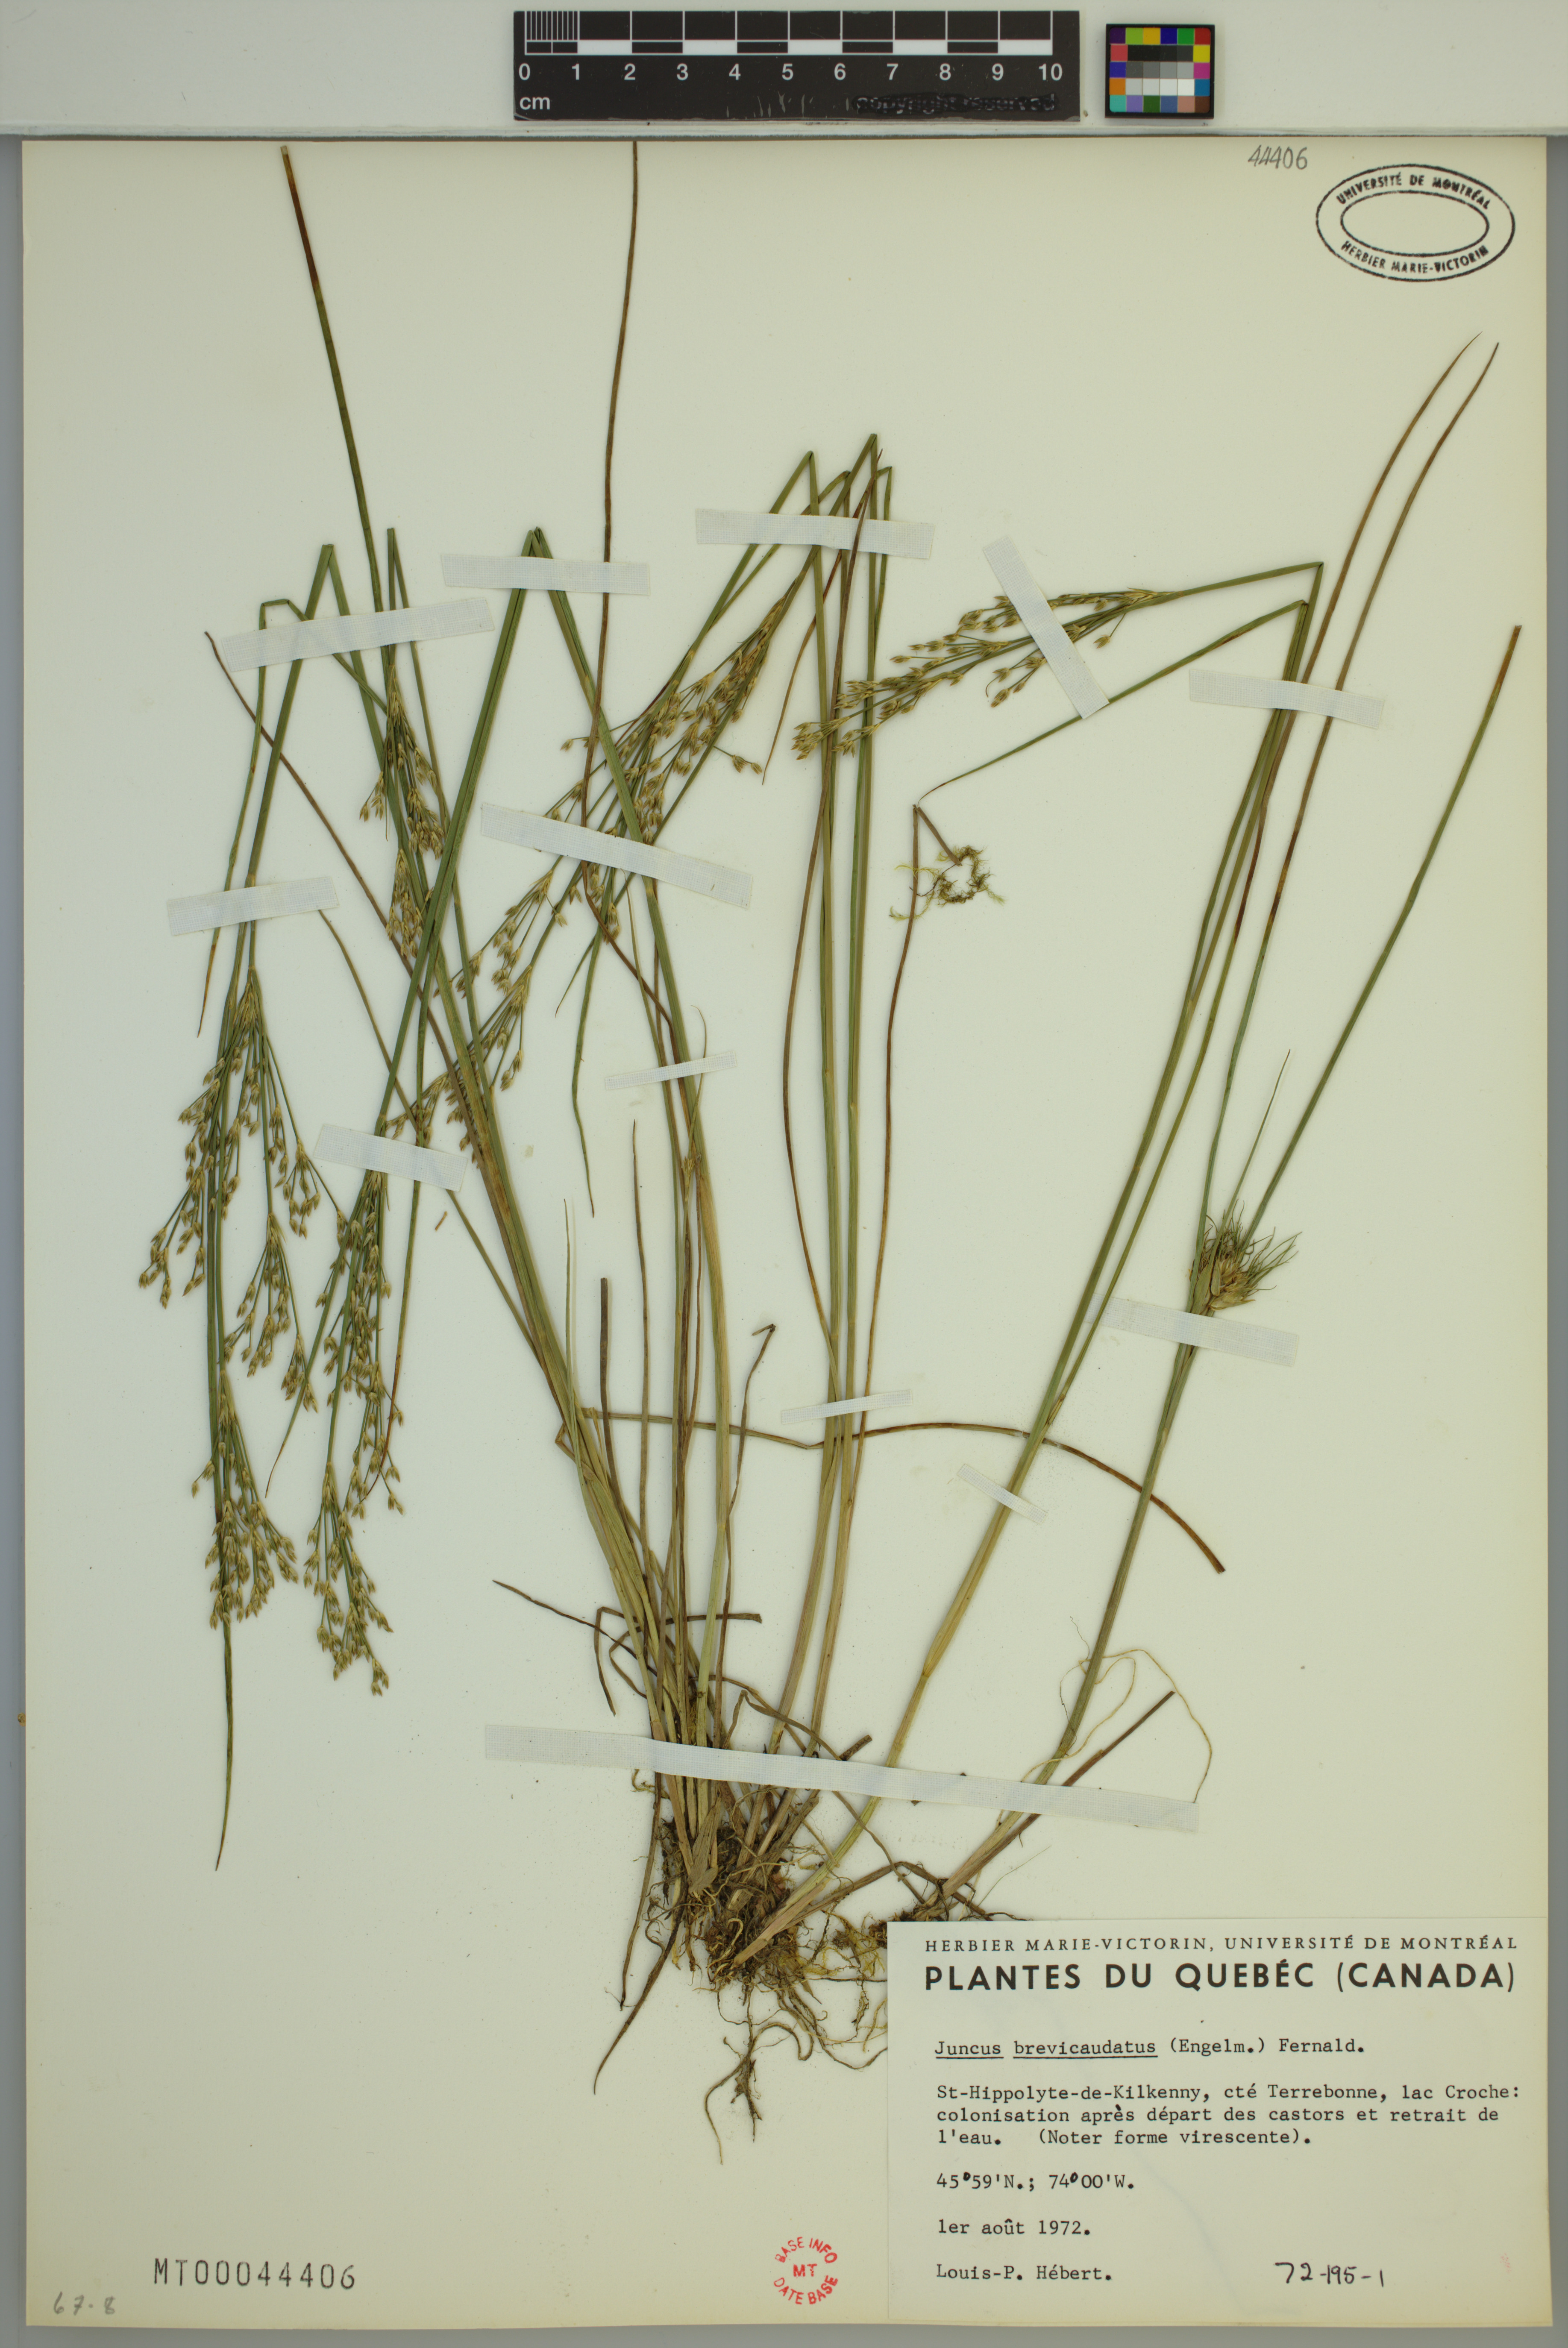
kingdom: Plantae
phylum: Tracheophyta
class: Liliopsida
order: Poales
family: Juncaceae
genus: Juncus
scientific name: Juncus brevicaudatus
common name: Narrow-panicle rush
